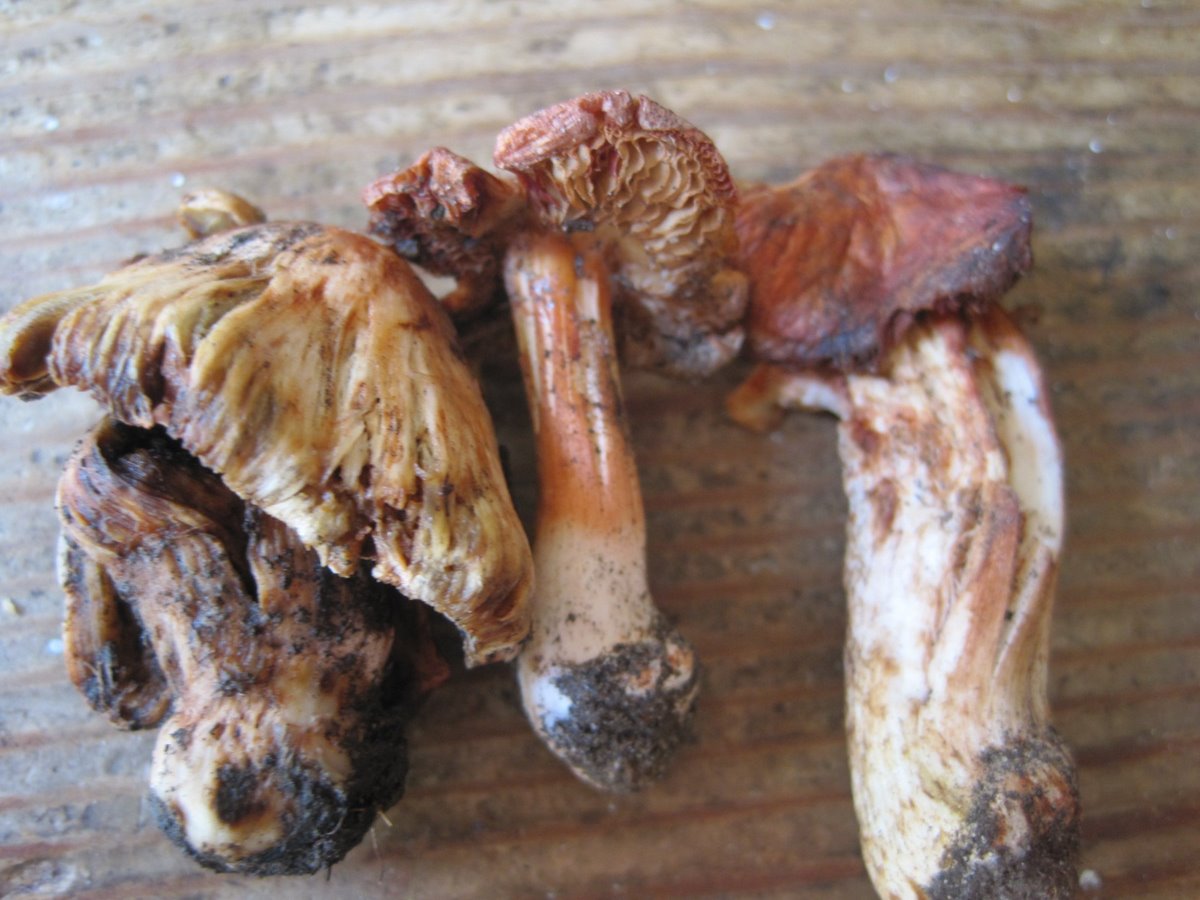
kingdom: Fungi
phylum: Basidiomycota
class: Agaricomycetes
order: Agaricales
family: Inocybaceae
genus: Inosperma
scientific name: Inosperma erubescens
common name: giftig trævlhat
